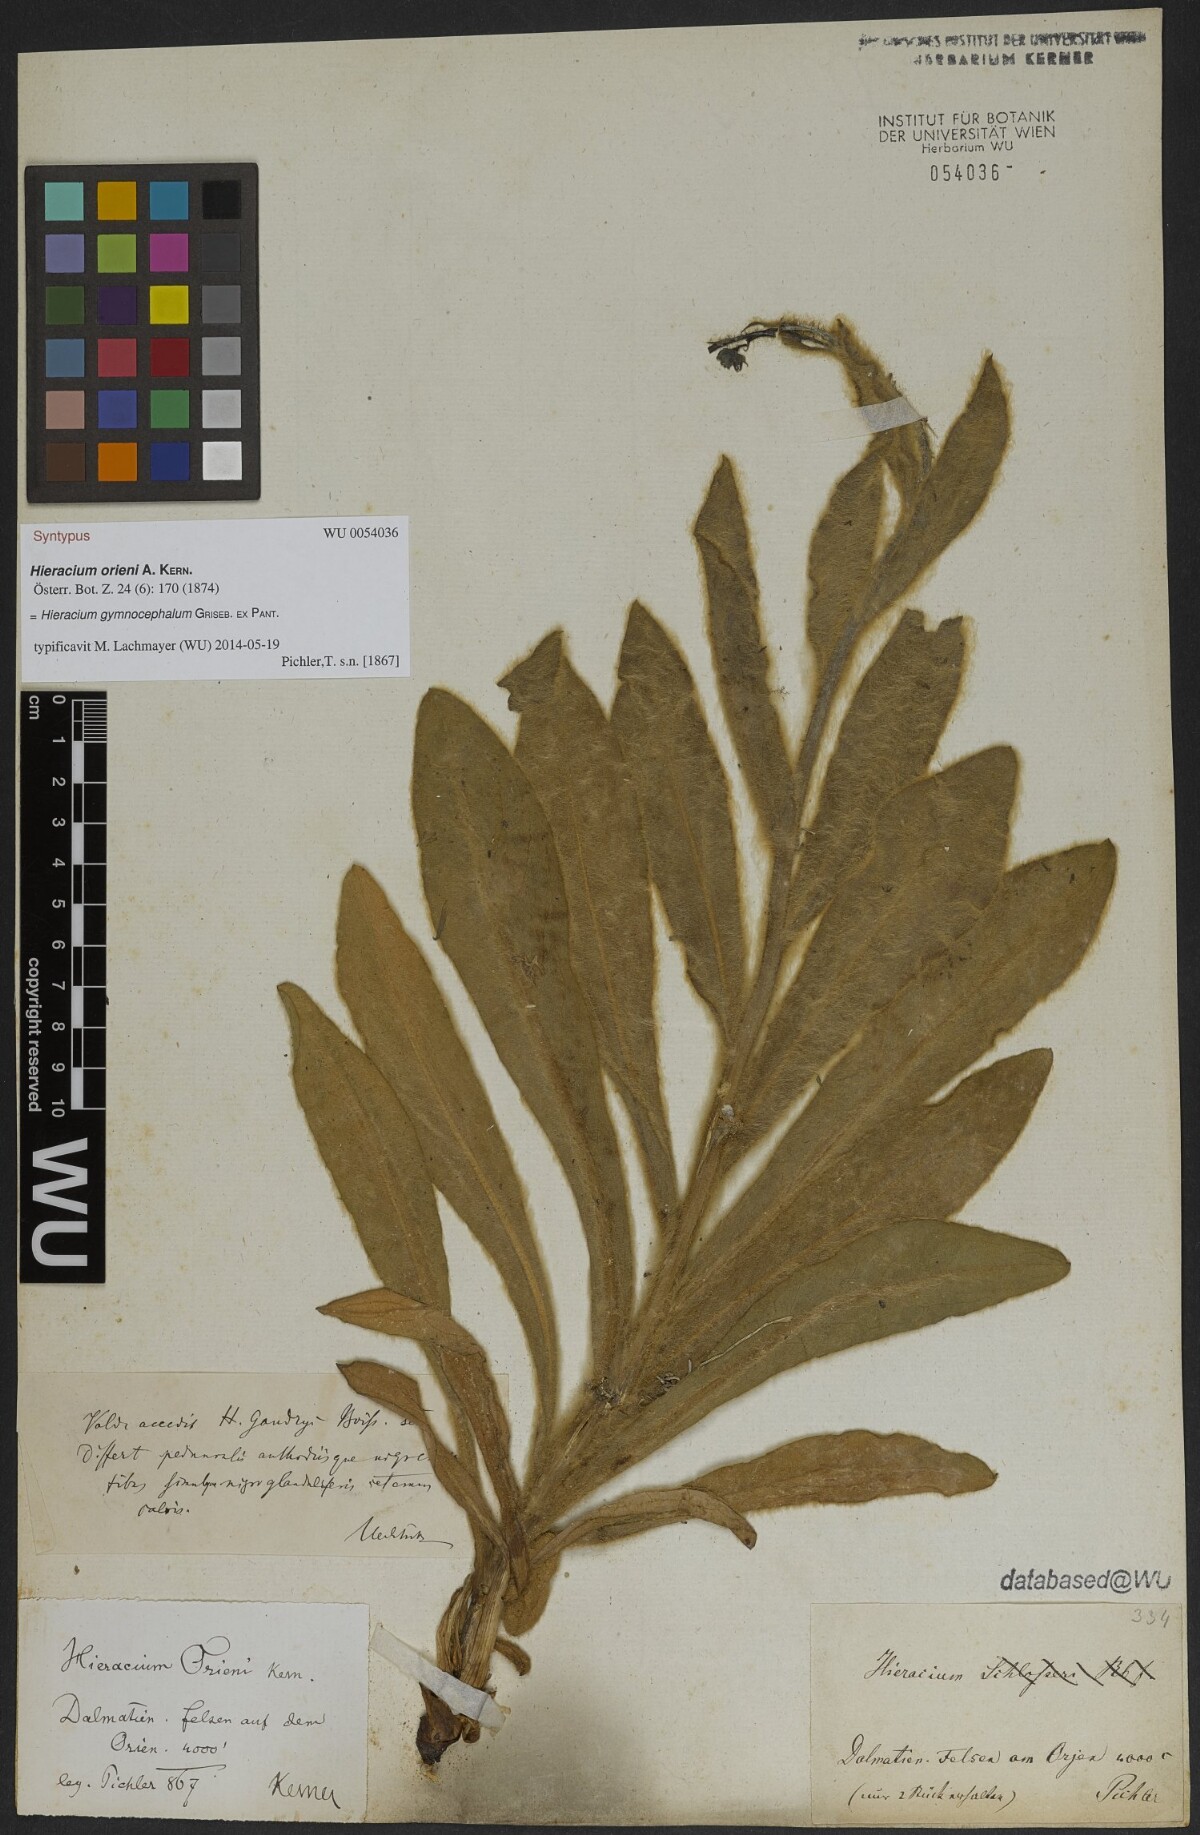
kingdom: Plantae
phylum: Tracheophyta
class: Magnoliopsida
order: Asterales
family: Asteraceae
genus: Hieracium
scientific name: Hieracium gymnocephalum
